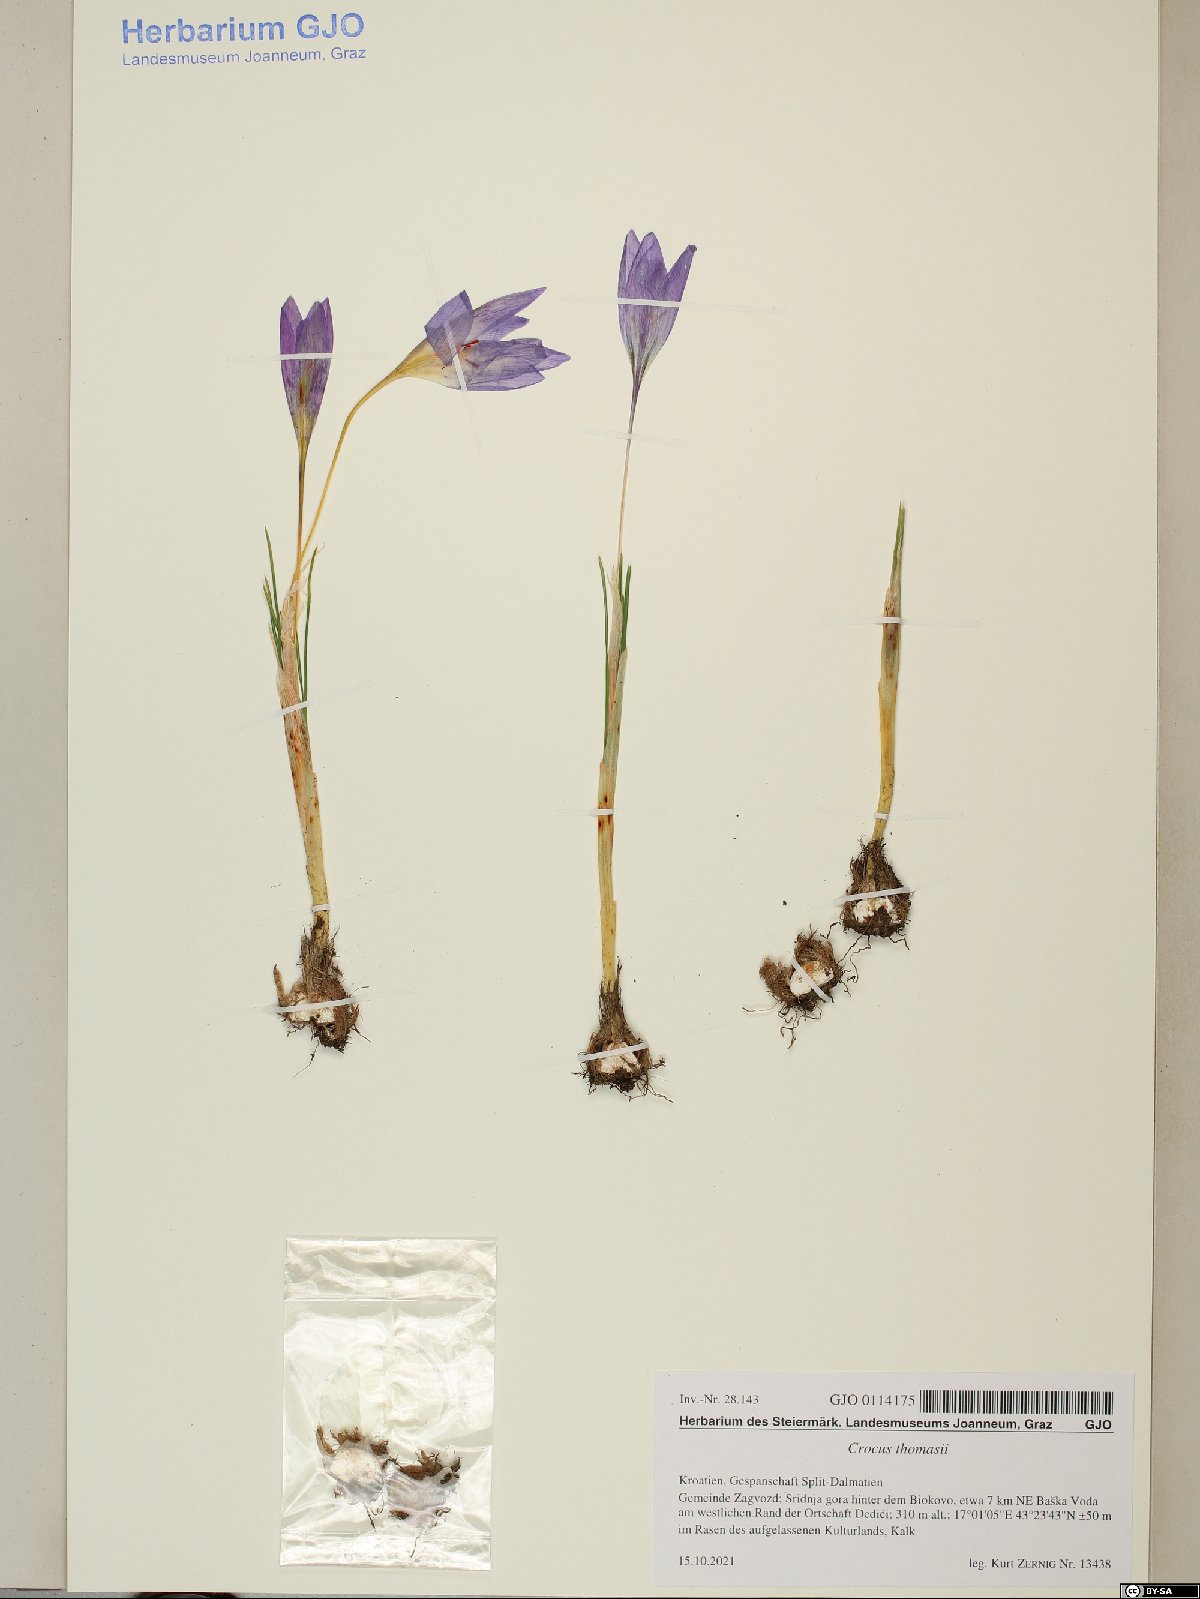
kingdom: Plantae
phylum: Tracheophyta
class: Liliopsida
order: Asparagales
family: Iridaceae
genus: Crocus
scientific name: Crocus thomasii
